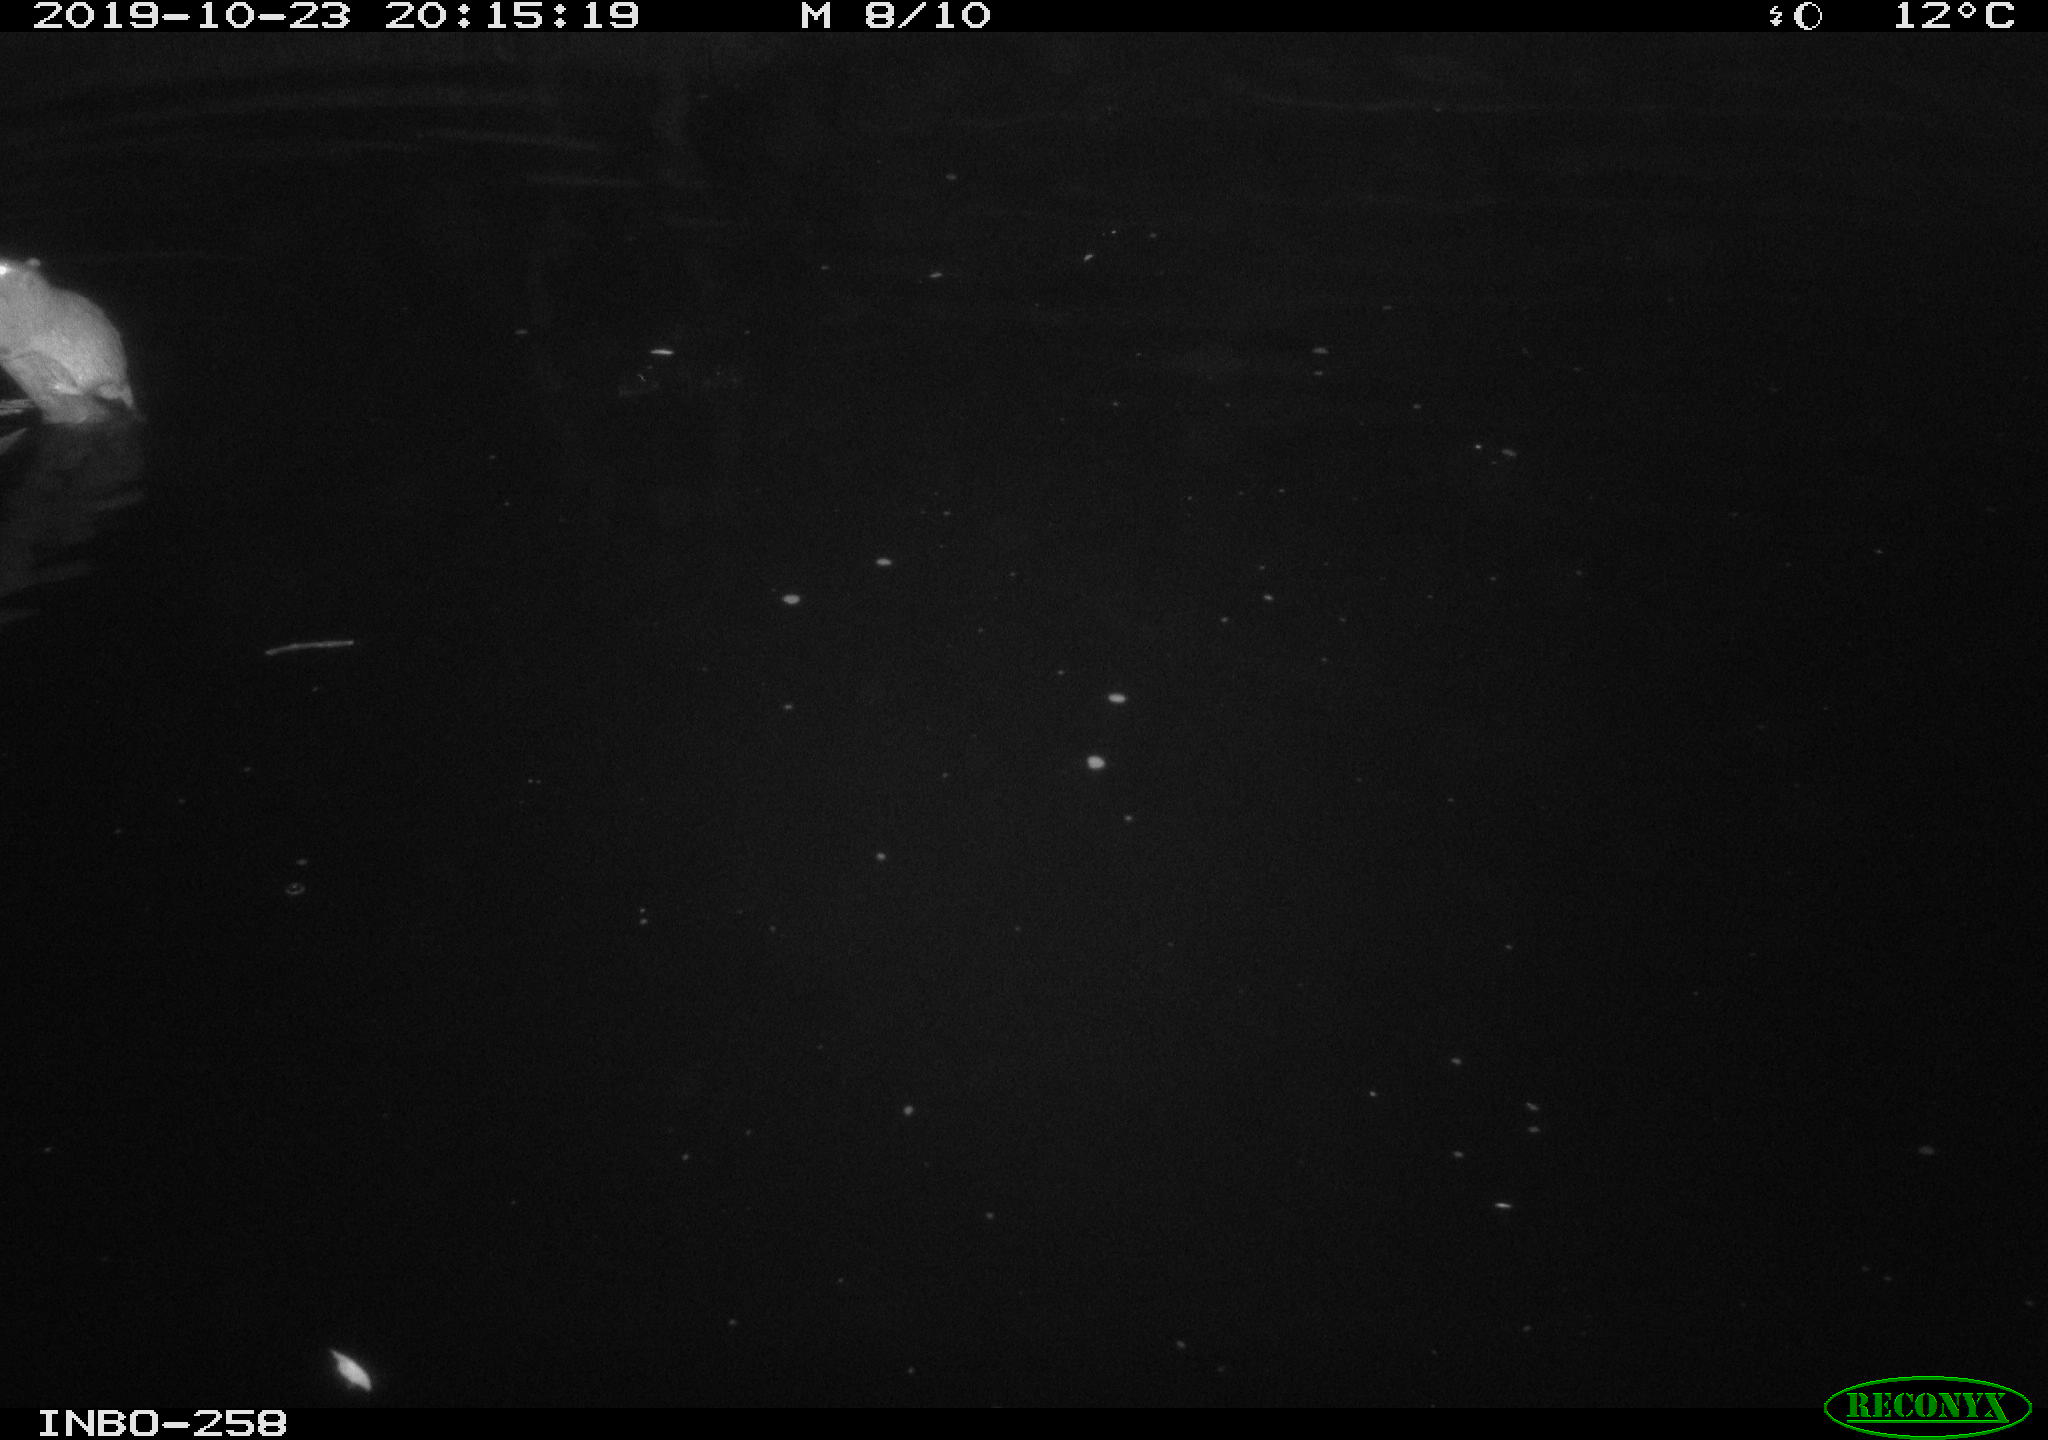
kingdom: Animalia
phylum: Chordata
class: Mammalia
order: Rodentia
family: Muridae
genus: Rattus
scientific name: Rattus norvegicus
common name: Brown rat
